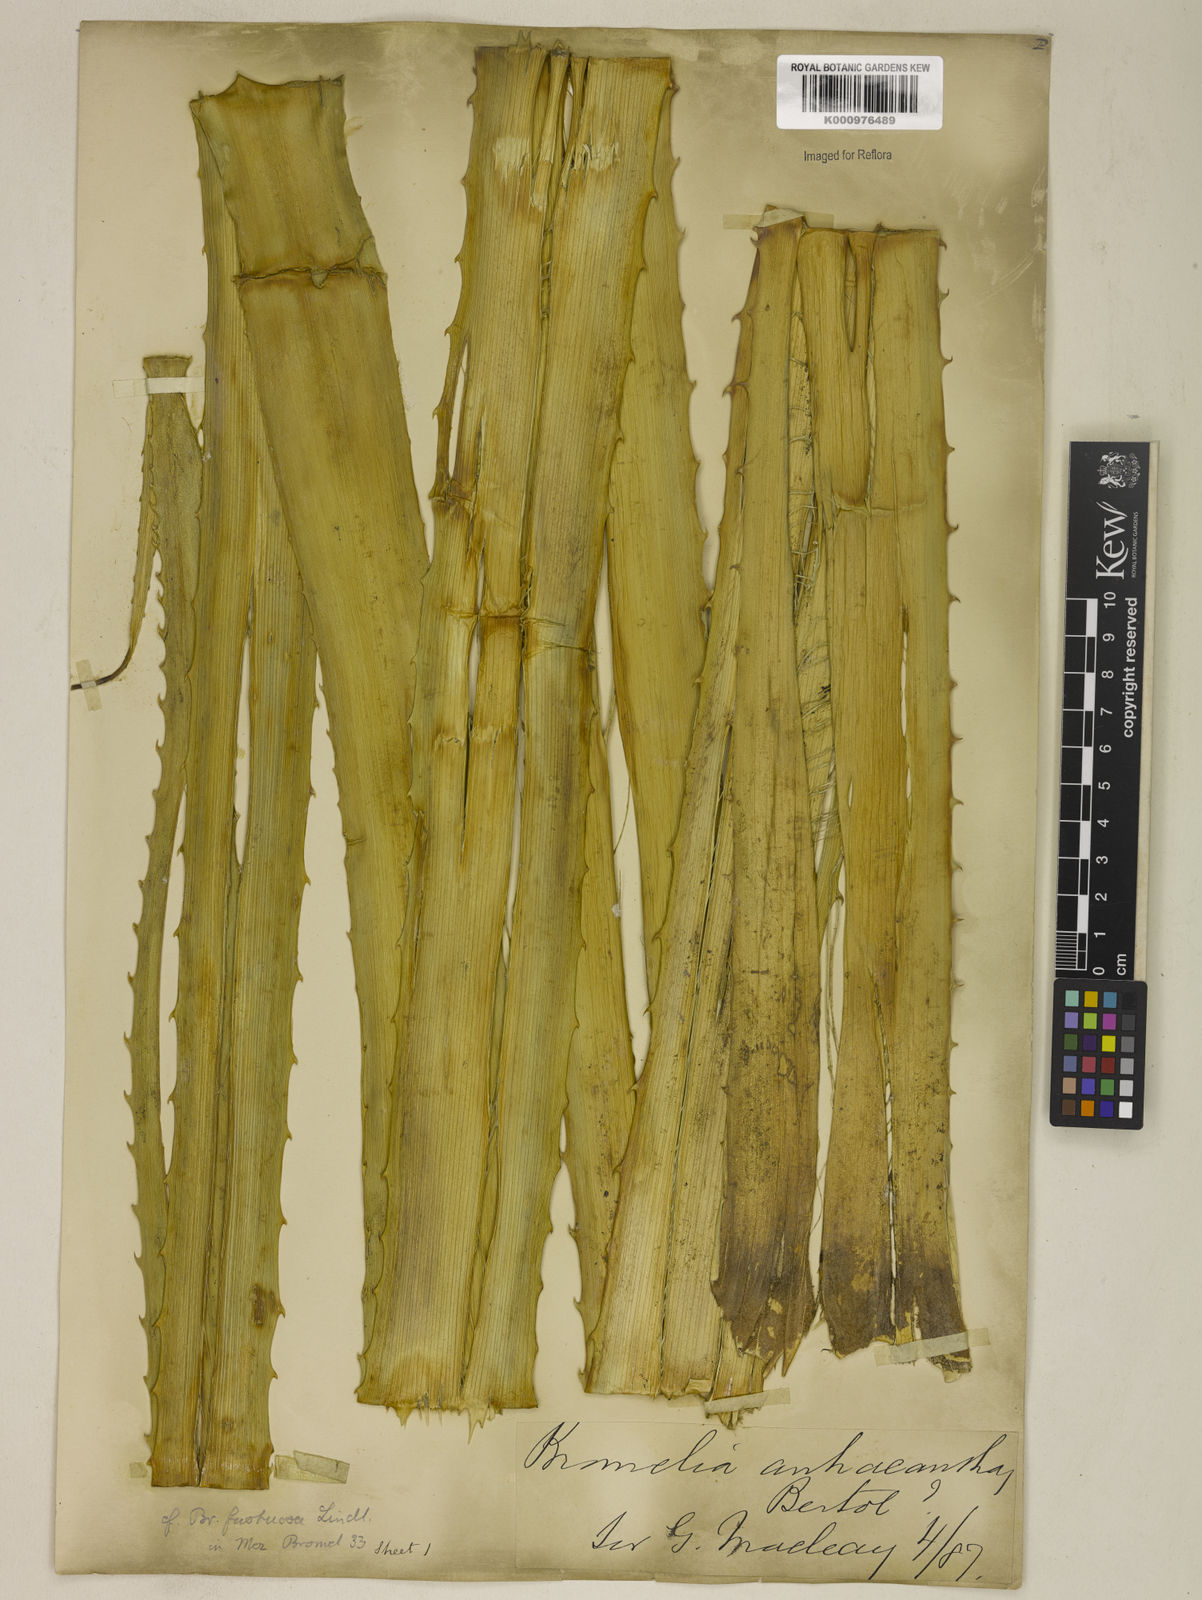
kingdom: Plantae
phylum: Tracheophyta
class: Liliopsida
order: Poales
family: Bromeliaceae
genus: Bromelia
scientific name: Bromelia antiacantha
